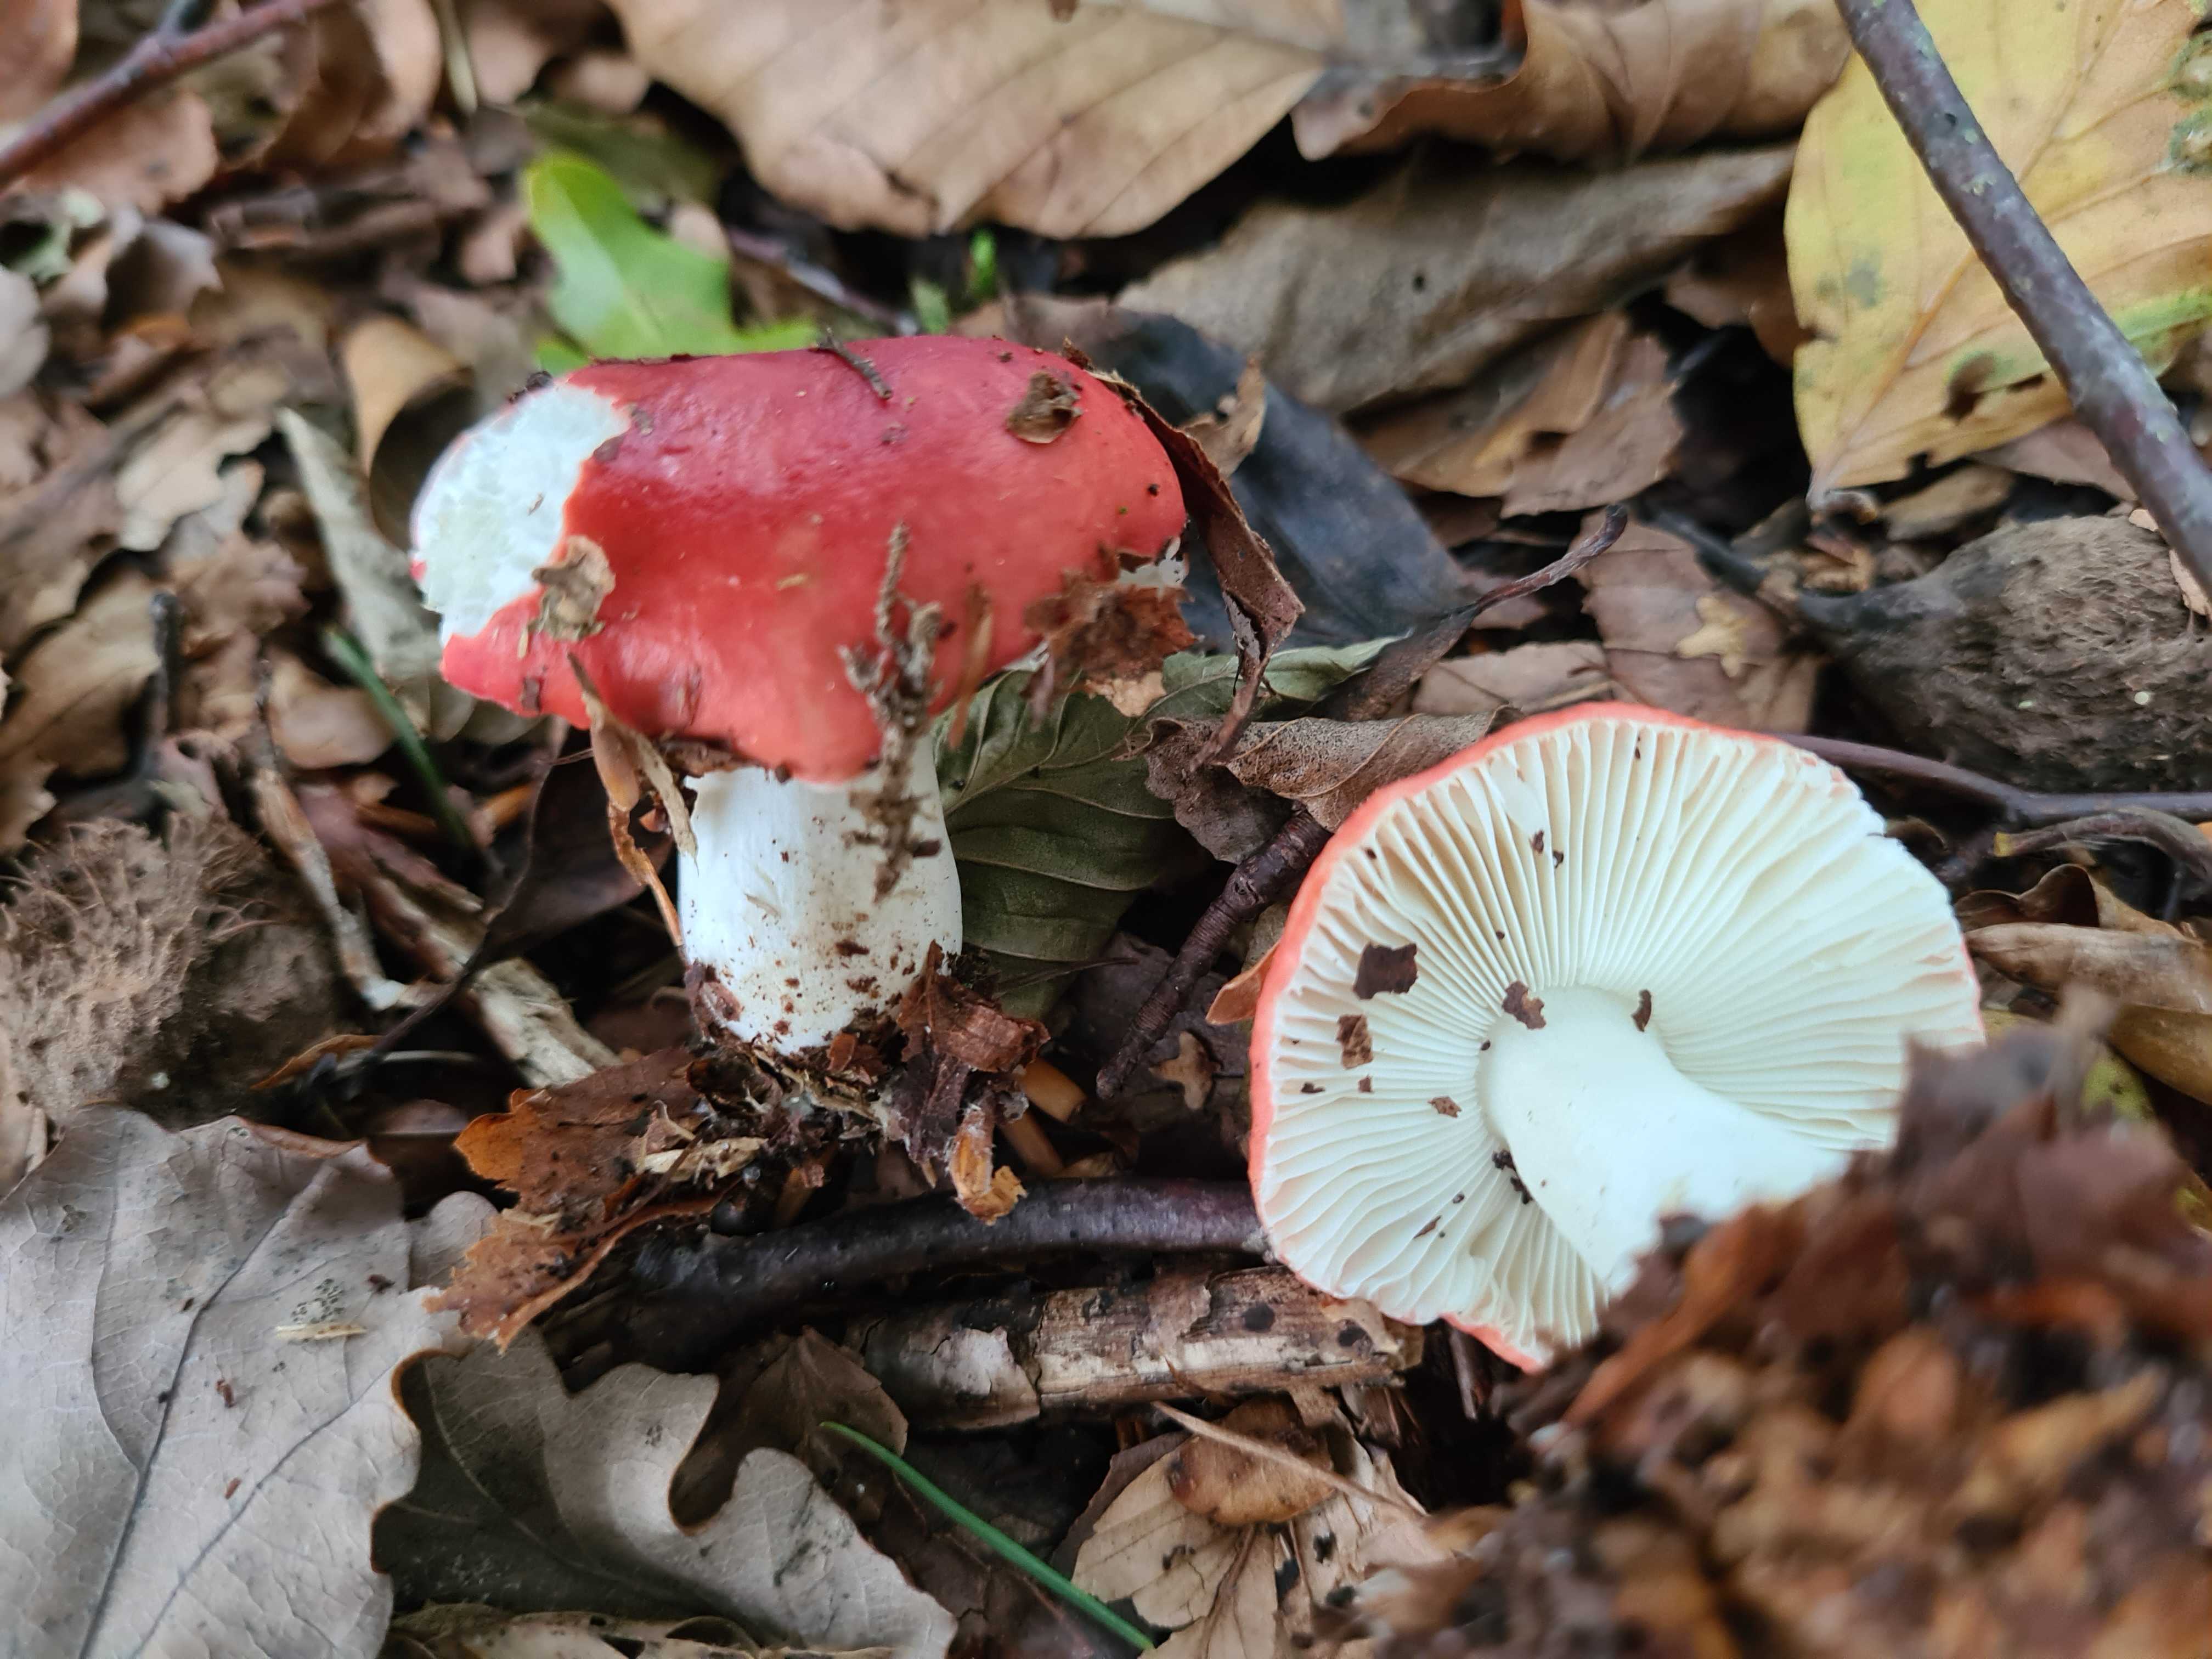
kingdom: Fungi
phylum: Basidiomycota
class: Agaricomycetes
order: Russulales
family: Russulaceae
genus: Russula
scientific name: Russula nobilis
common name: lille gift-skørhat
